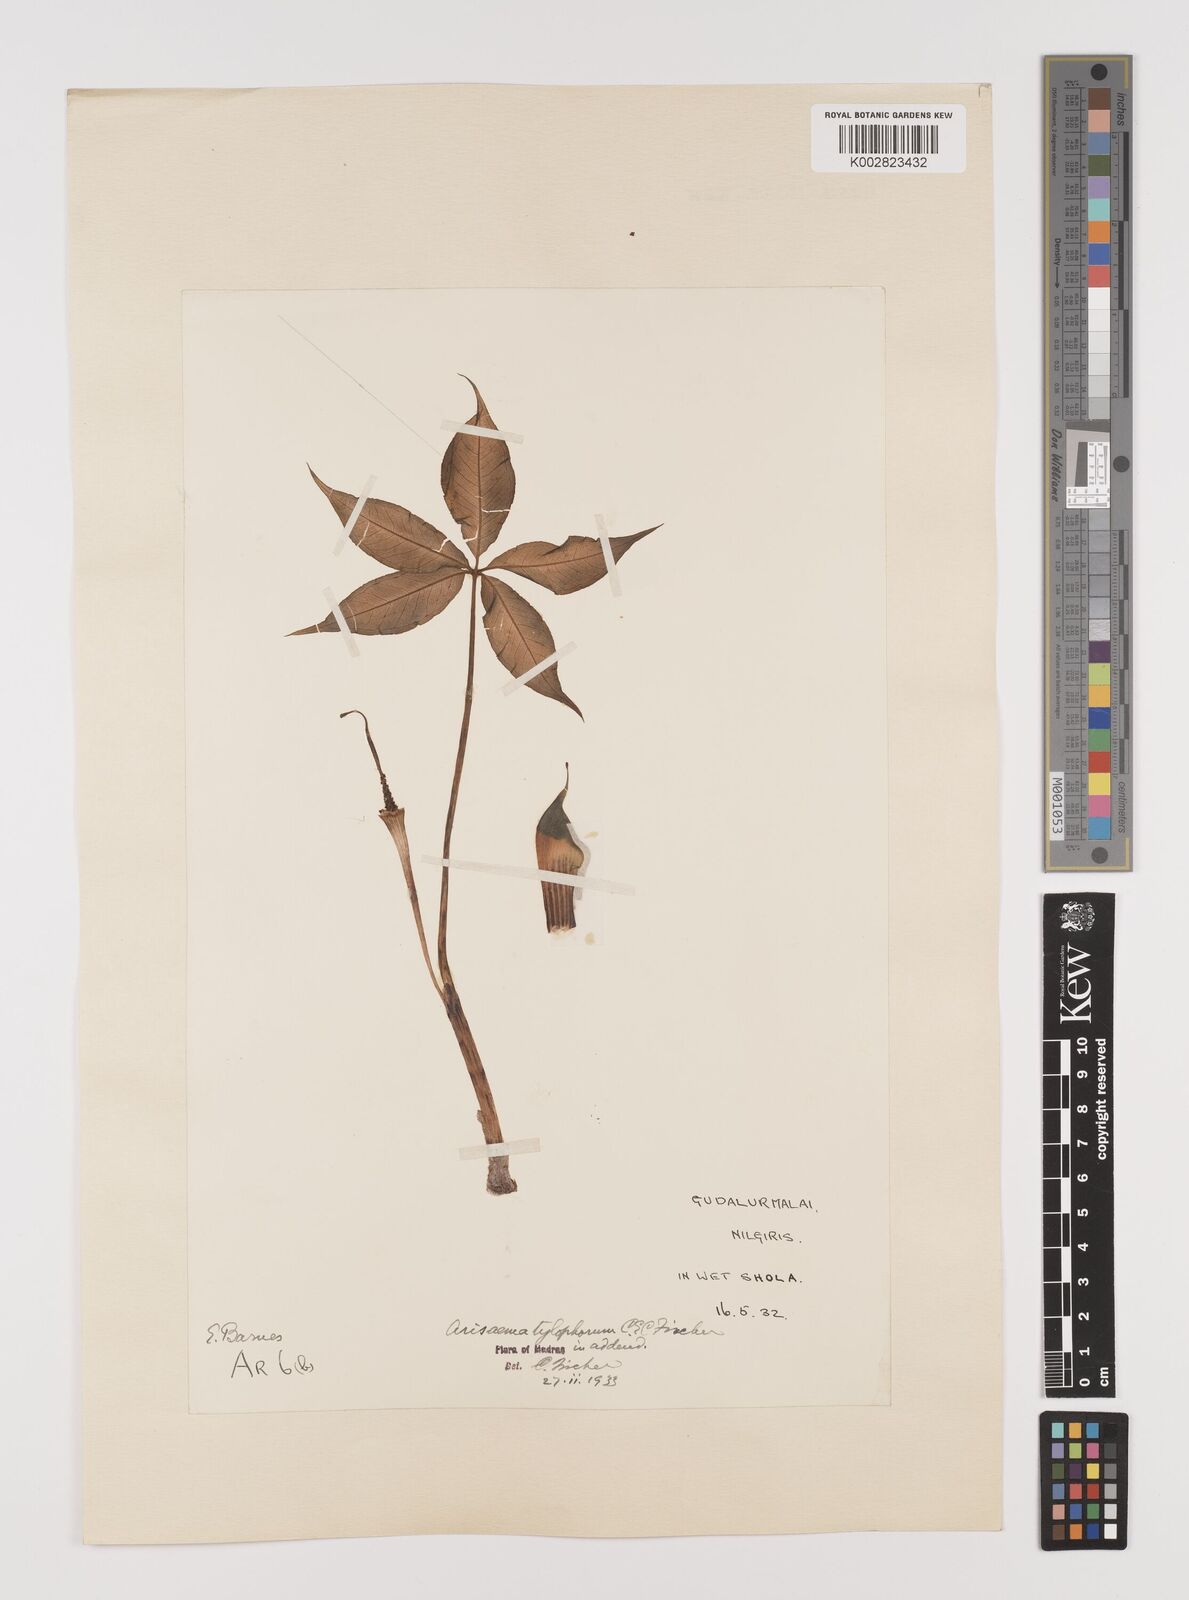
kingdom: Plantae
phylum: Tracheophyta
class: Liliopsida
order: Alismatales
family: Araceae
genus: Arisaema
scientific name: Arisaema barnesii
